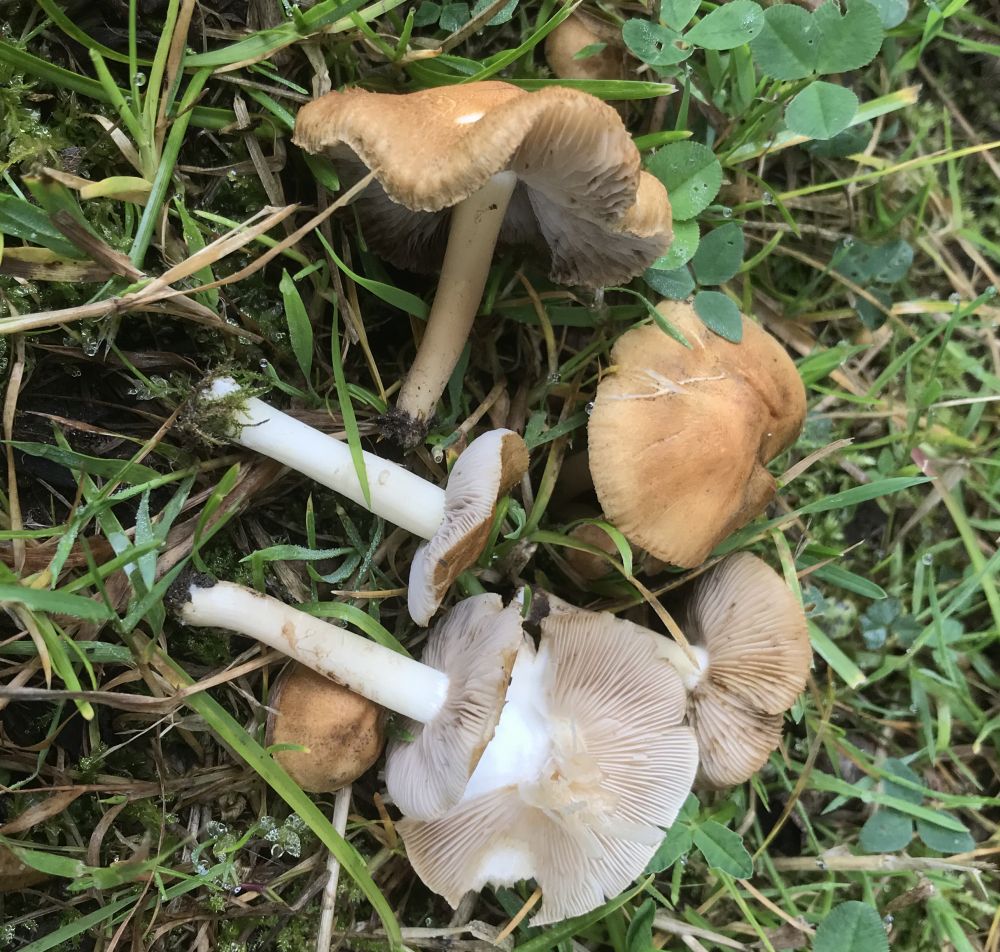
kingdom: Fungi
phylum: Basidiomycota
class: Agaricomycetes
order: Agaricales
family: Inocybaceae
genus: Inocybe
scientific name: Inocybe
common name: trævlhat
